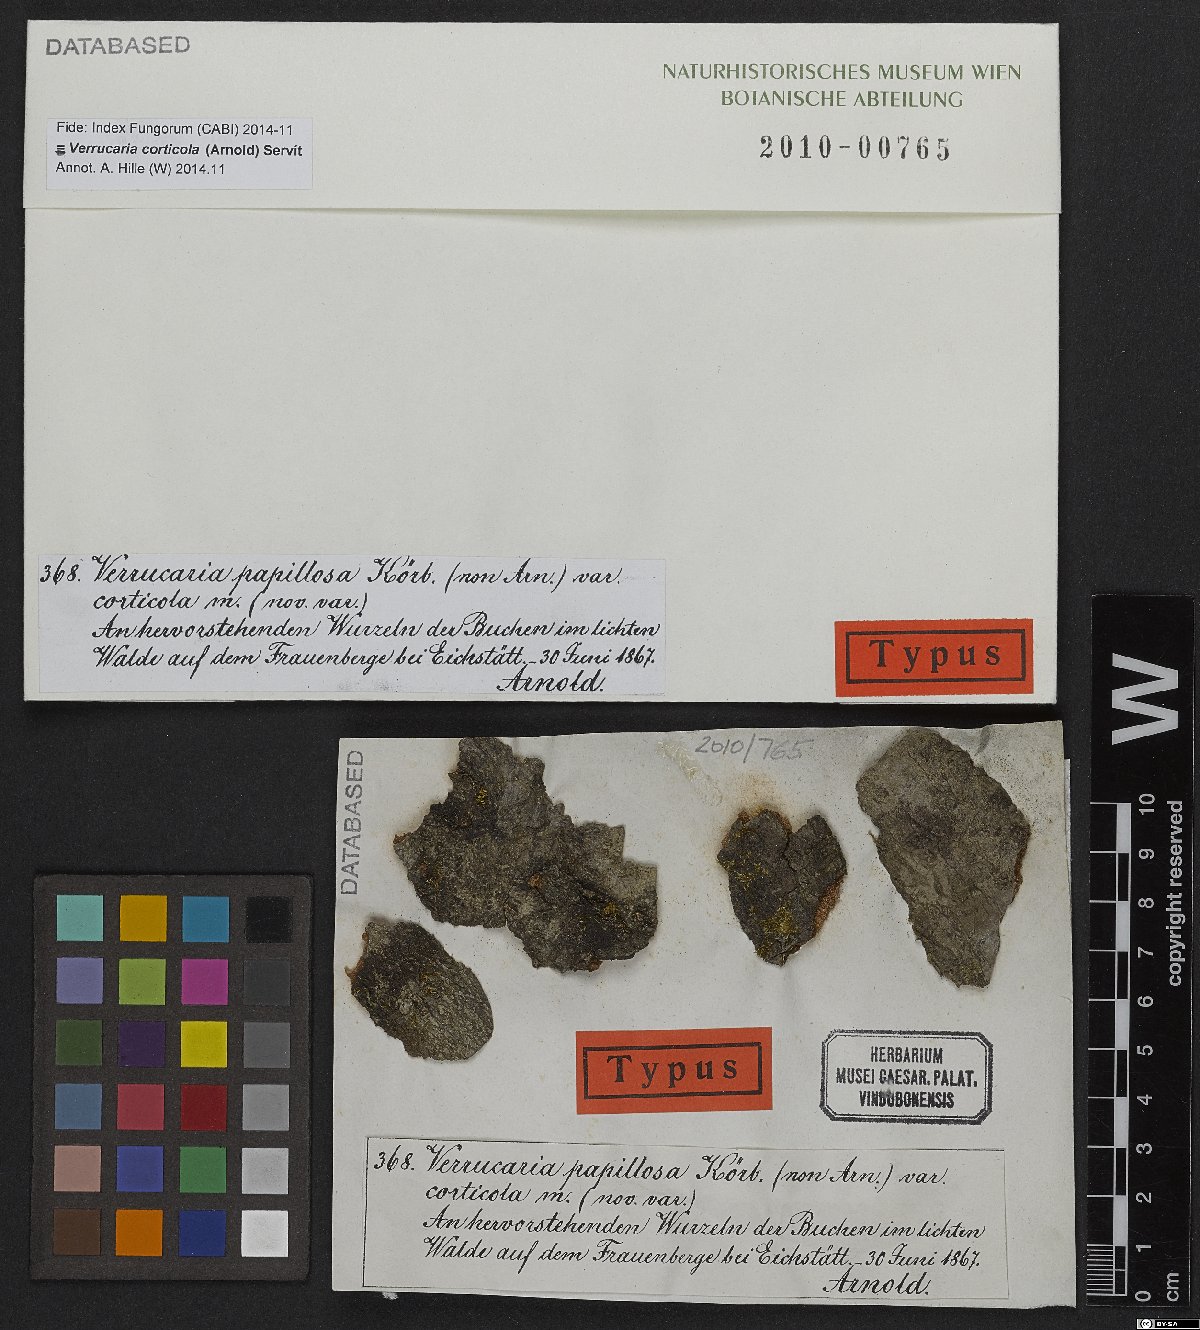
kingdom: Fungi
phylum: Ascomycota
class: Eurotiomycetes
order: Verrucariales
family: Verrucariaceae
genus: Verrucaria
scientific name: Verrucaria corticola
